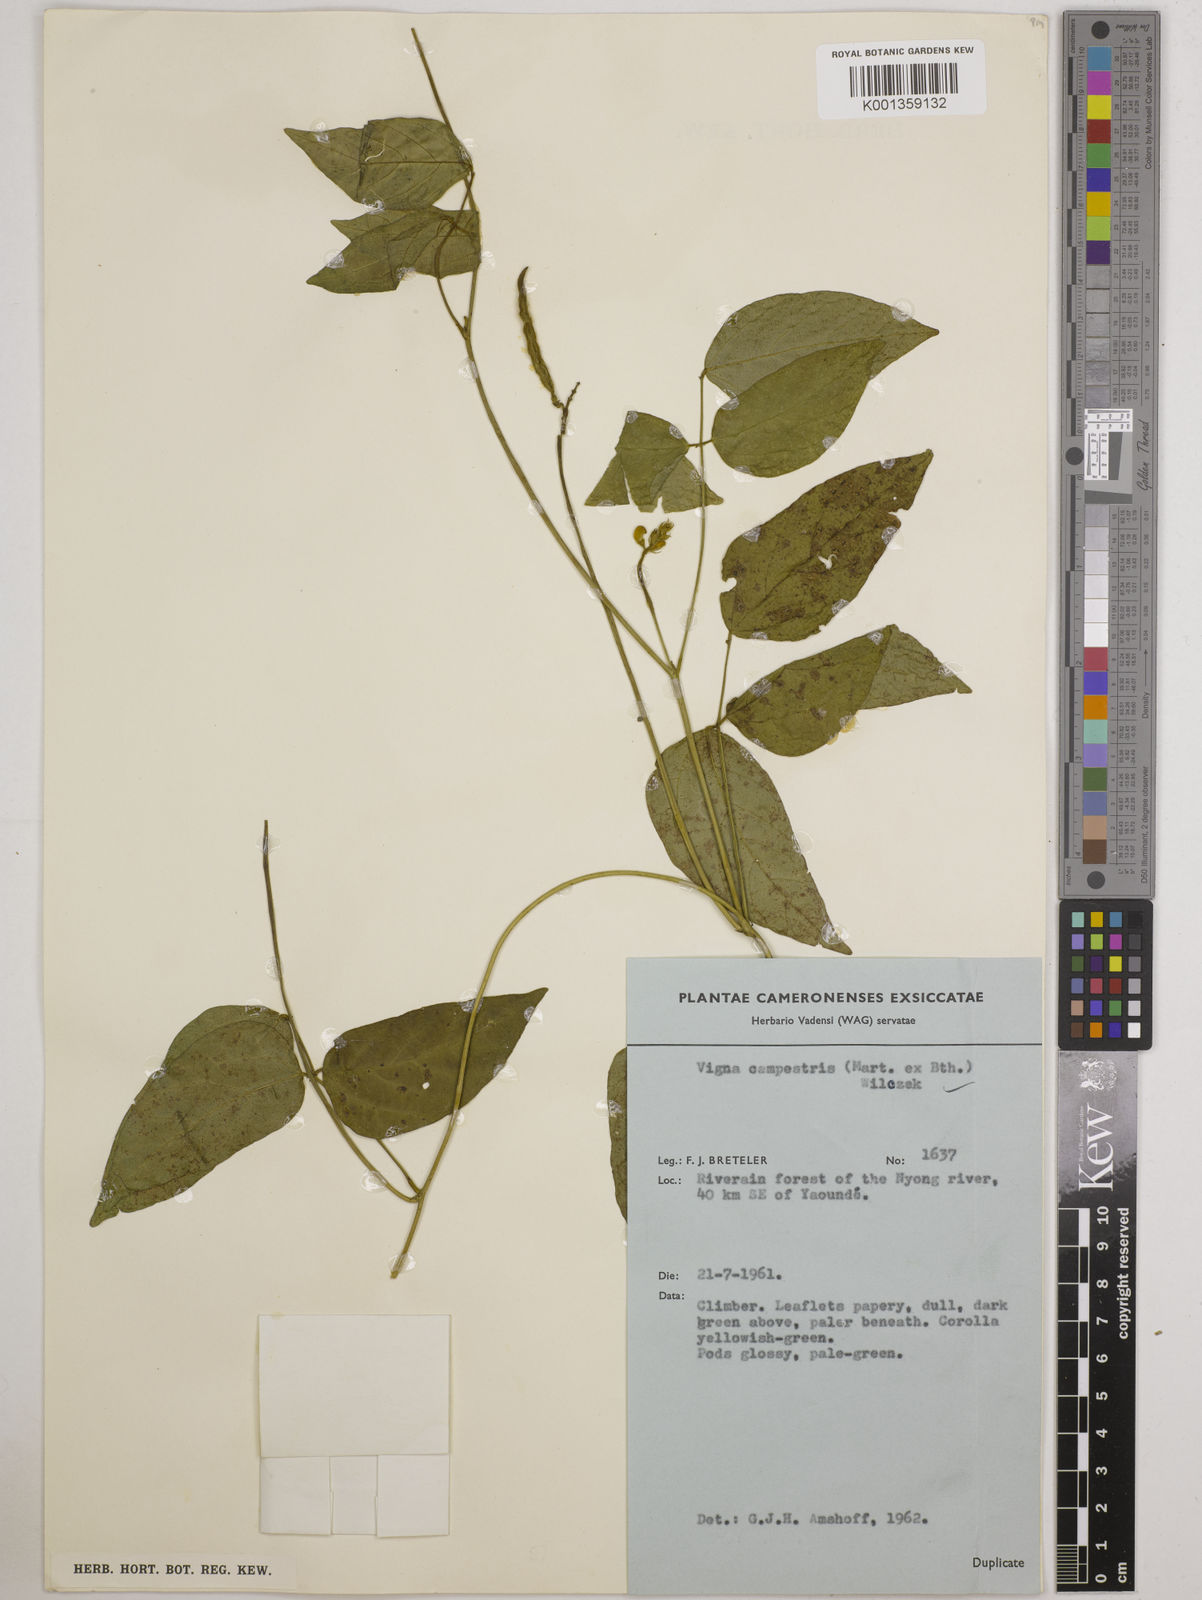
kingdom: Plantae
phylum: Tracheophyta
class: Magnoliopsida
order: Fabales
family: Fabaceae
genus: Vigna
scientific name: Vigna juruana
